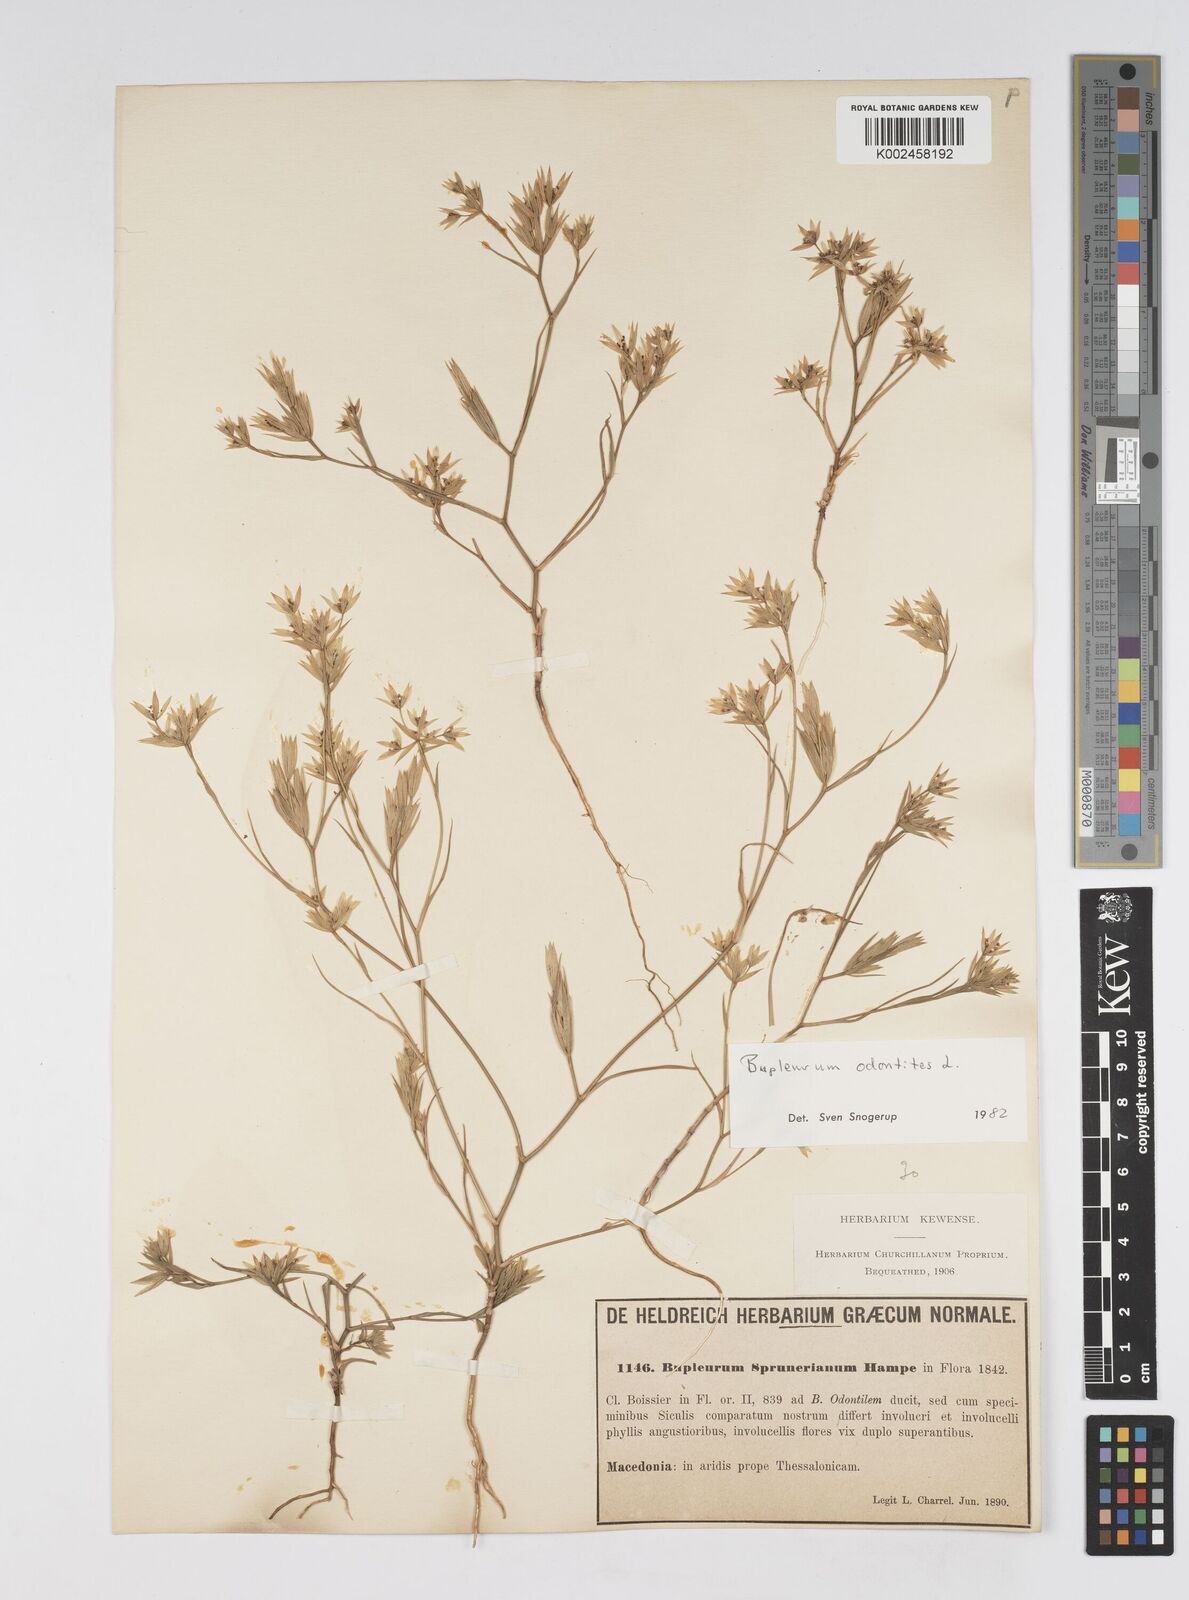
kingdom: Plantae
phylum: Tracheophyta
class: Magnoliopsida
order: Apiales
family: Apiaceae
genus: Bupleurum
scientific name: Bupleurum odontites
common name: Narrowleaf thorow wax
